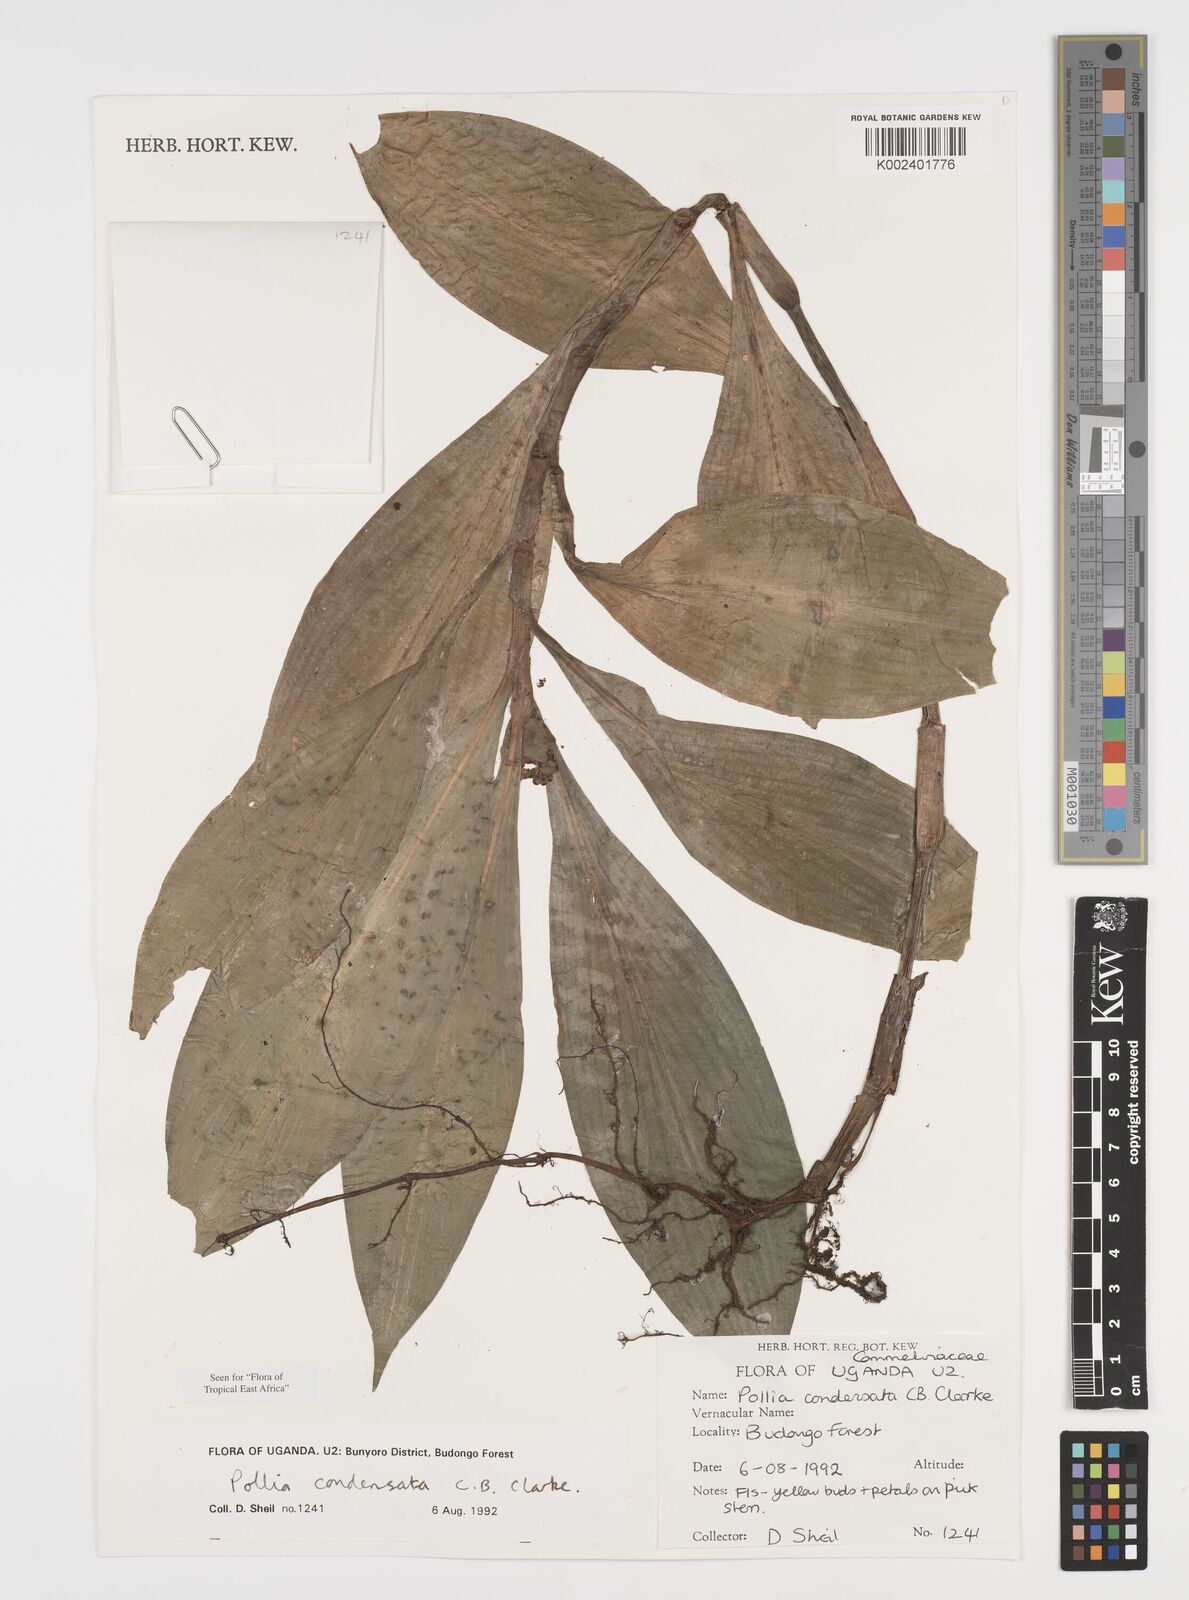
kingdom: Plantae
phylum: Tracheophyta
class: Liliopsida
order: Commelinales
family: Commelinaceae
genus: Pollia
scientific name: Pollia condensata
